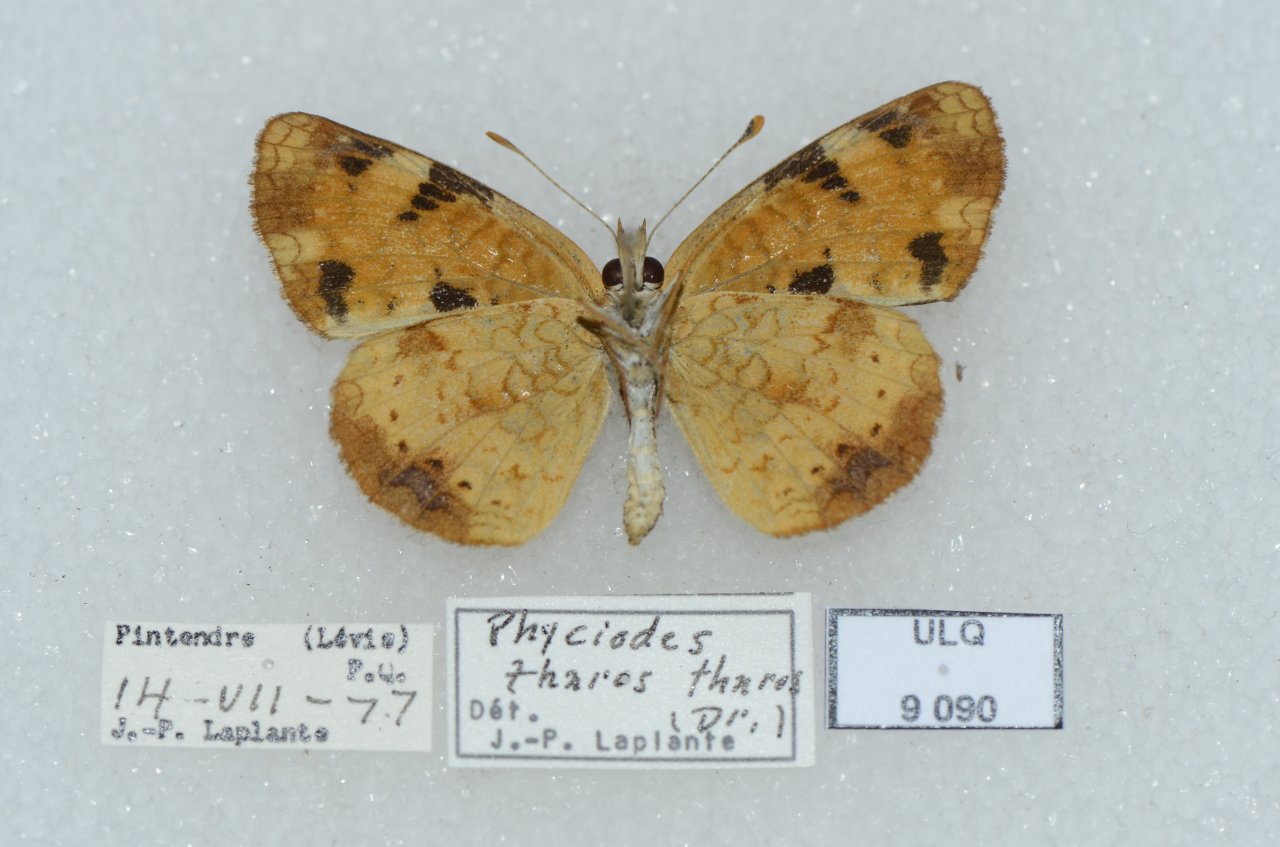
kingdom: Animalia
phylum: Arthropoda
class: Insecta
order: Lepidoptera
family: Nymphalidae
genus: Phyciodes
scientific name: Phyciodes tharos
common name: Northern Crescent
